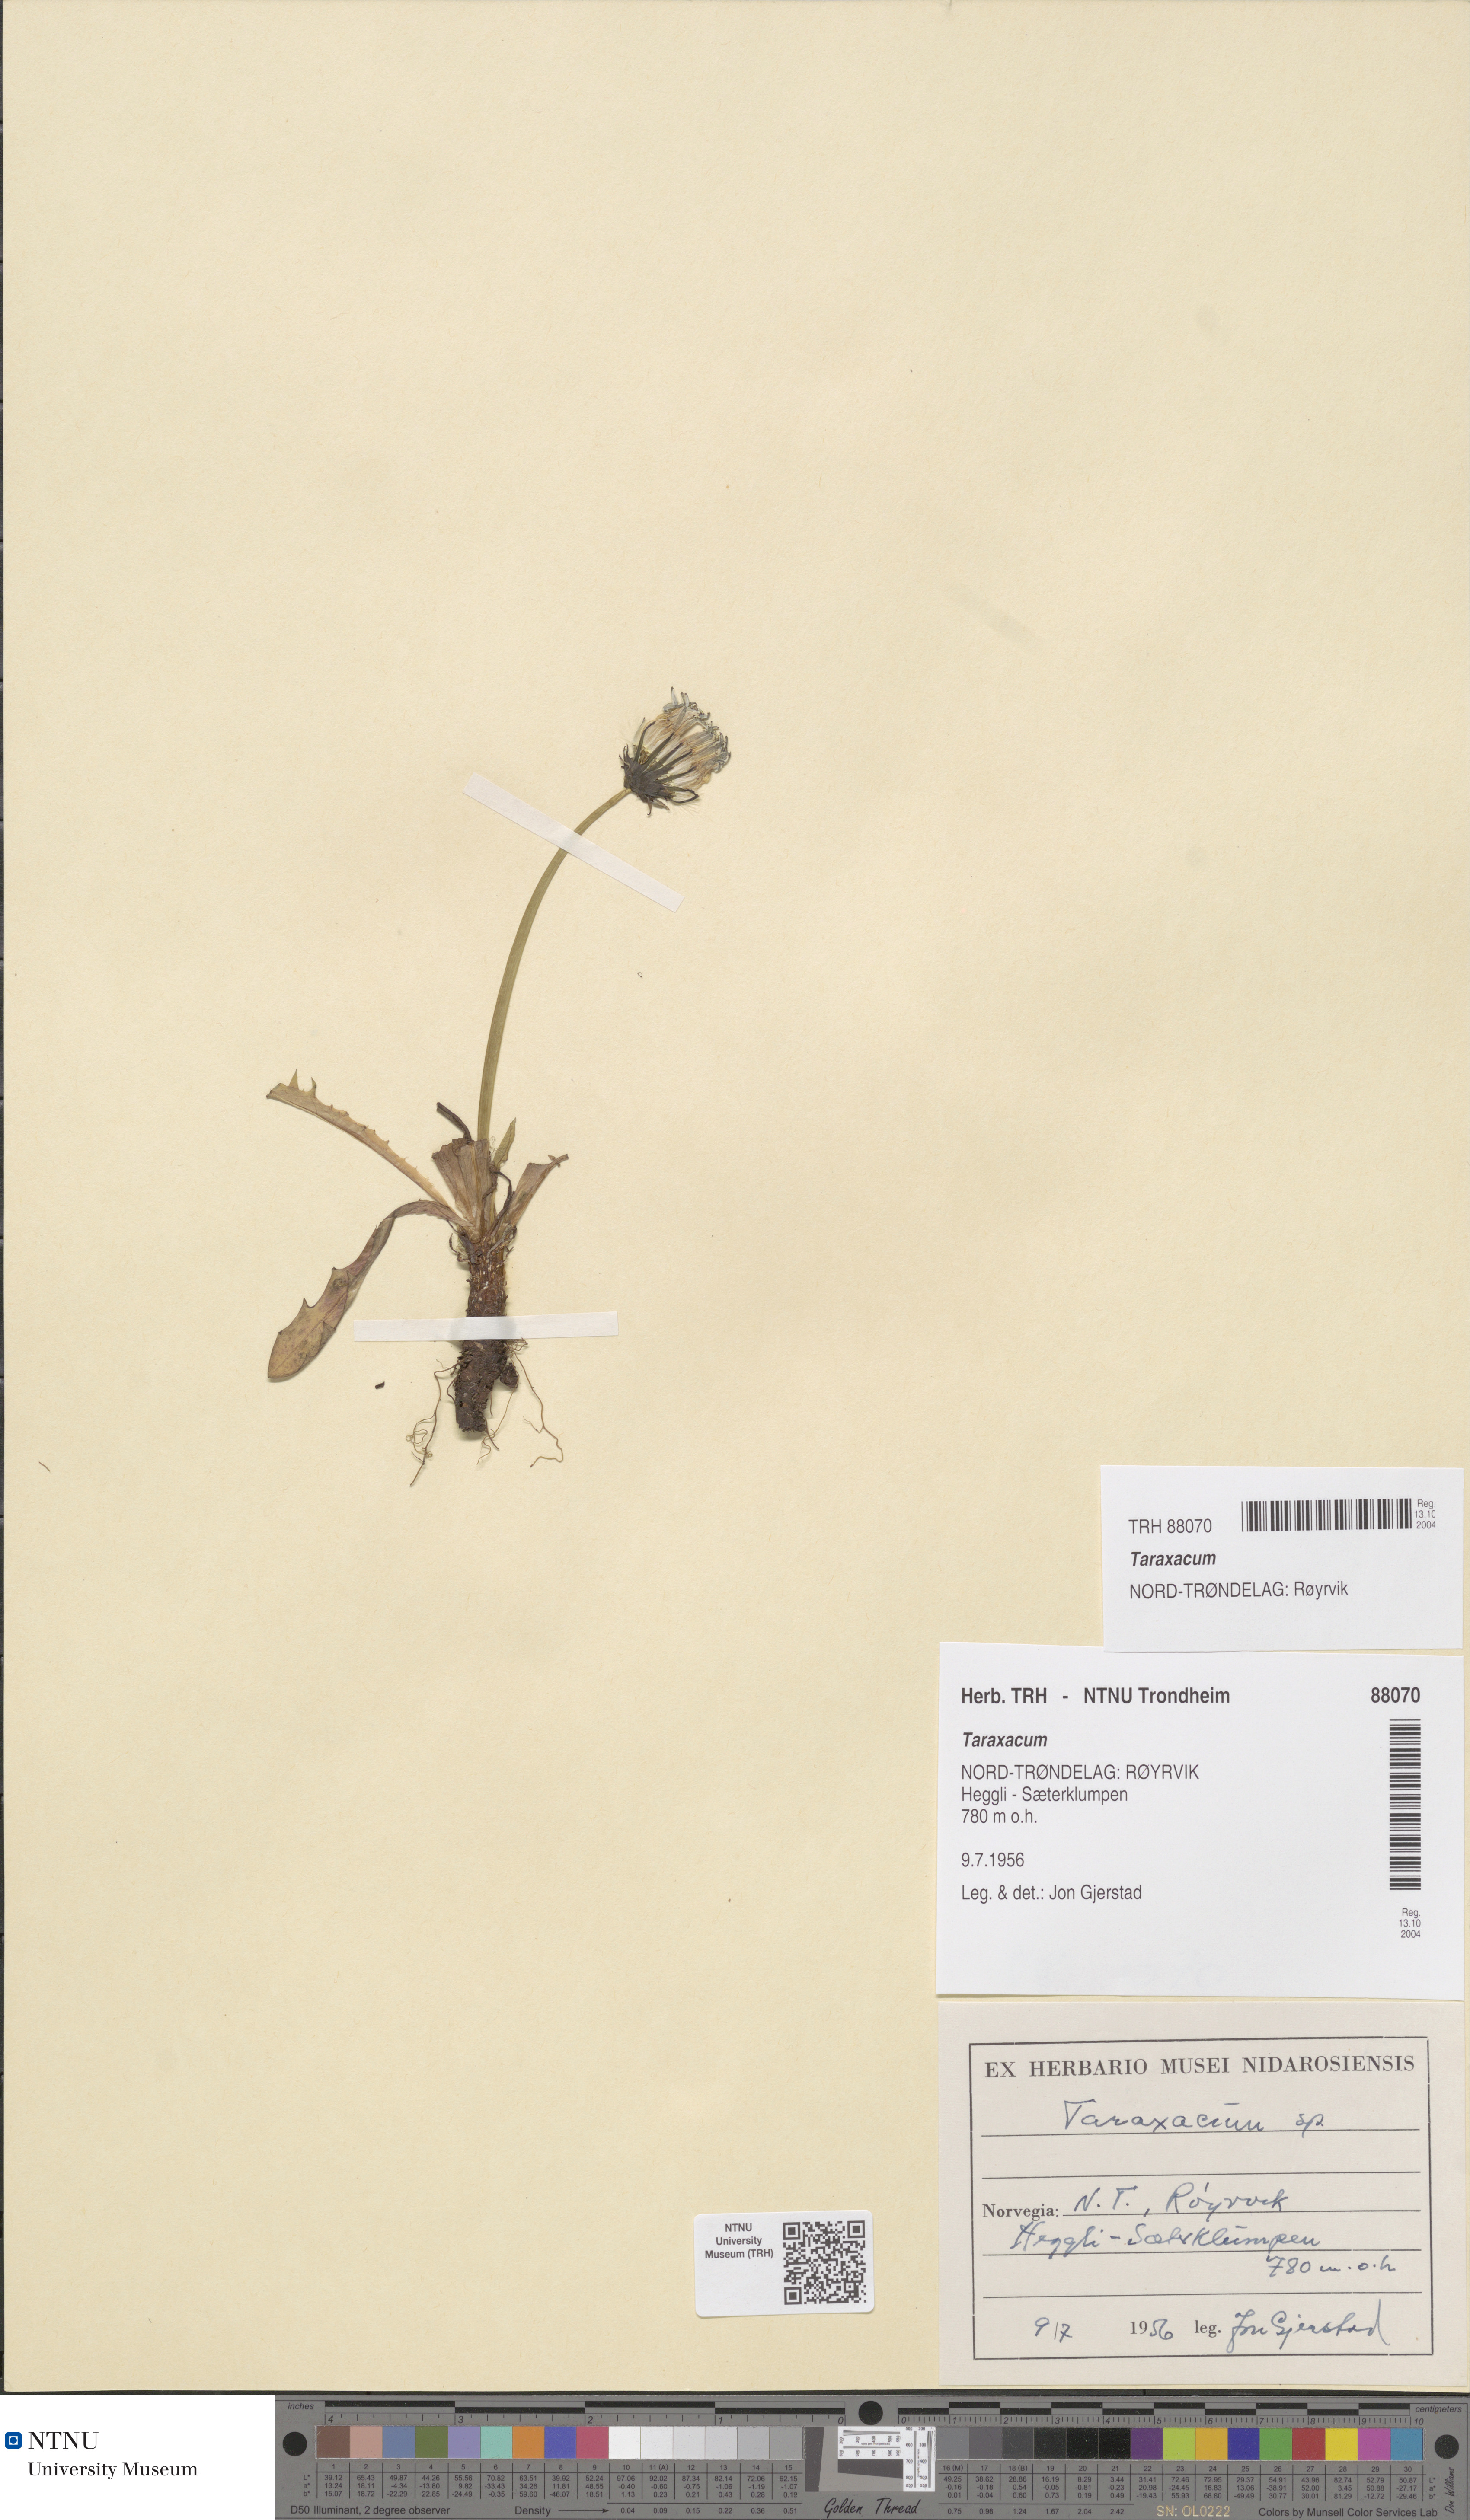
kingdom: Plantae
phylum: Tracheophyta
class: Magnoliopsida
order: Asterales
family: Asteraceae
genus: Taraxacum
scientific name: Taraxacum
